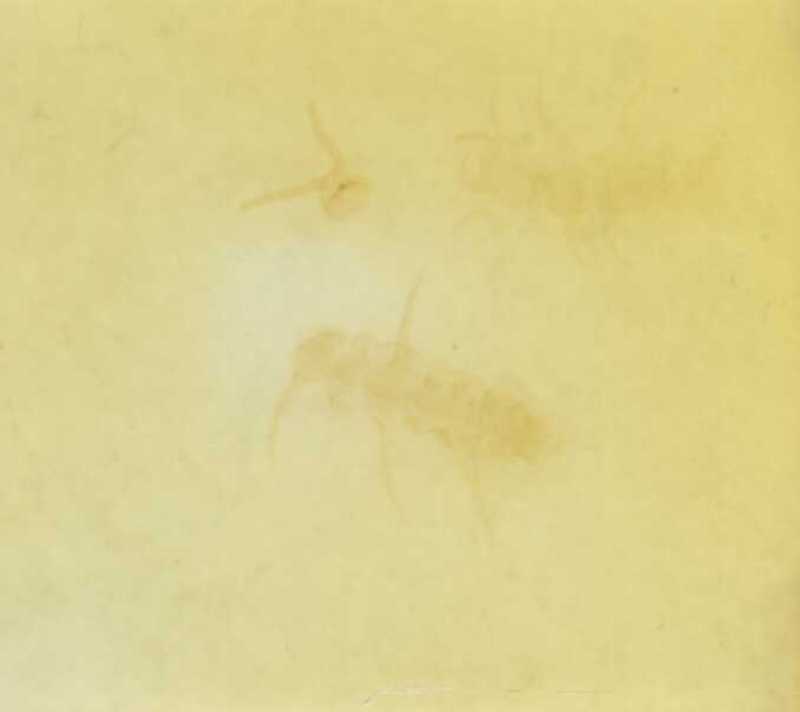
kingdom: Animalia
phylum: Arthropoda
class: Chilopoda
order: Lithobiomorpha
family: Lithobiidae
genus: Harpolithobius
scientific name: Harpolithobius anodus
